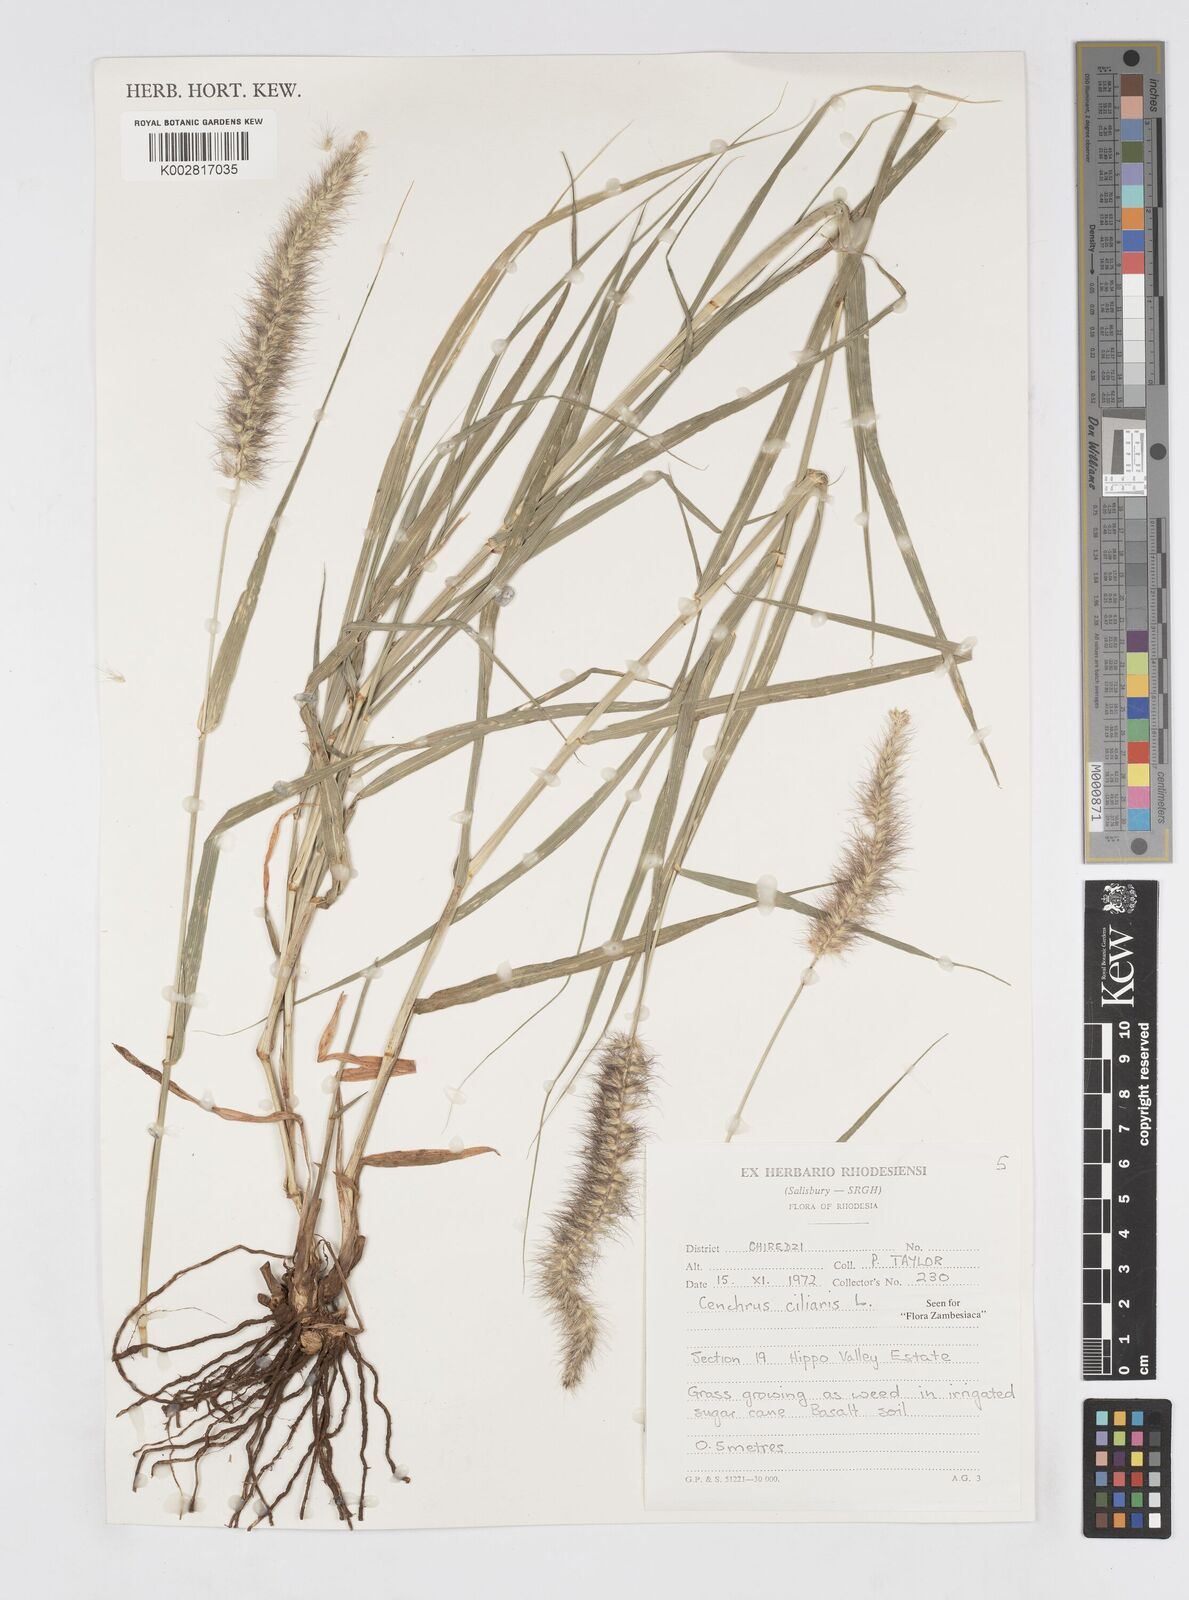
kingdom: Plantae
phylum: Tracheophyta
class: Liliopsida
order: Poales
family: Poaceae
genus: Cenchrus
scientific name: Cenchrus ciliaris
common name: Buffelgrass
